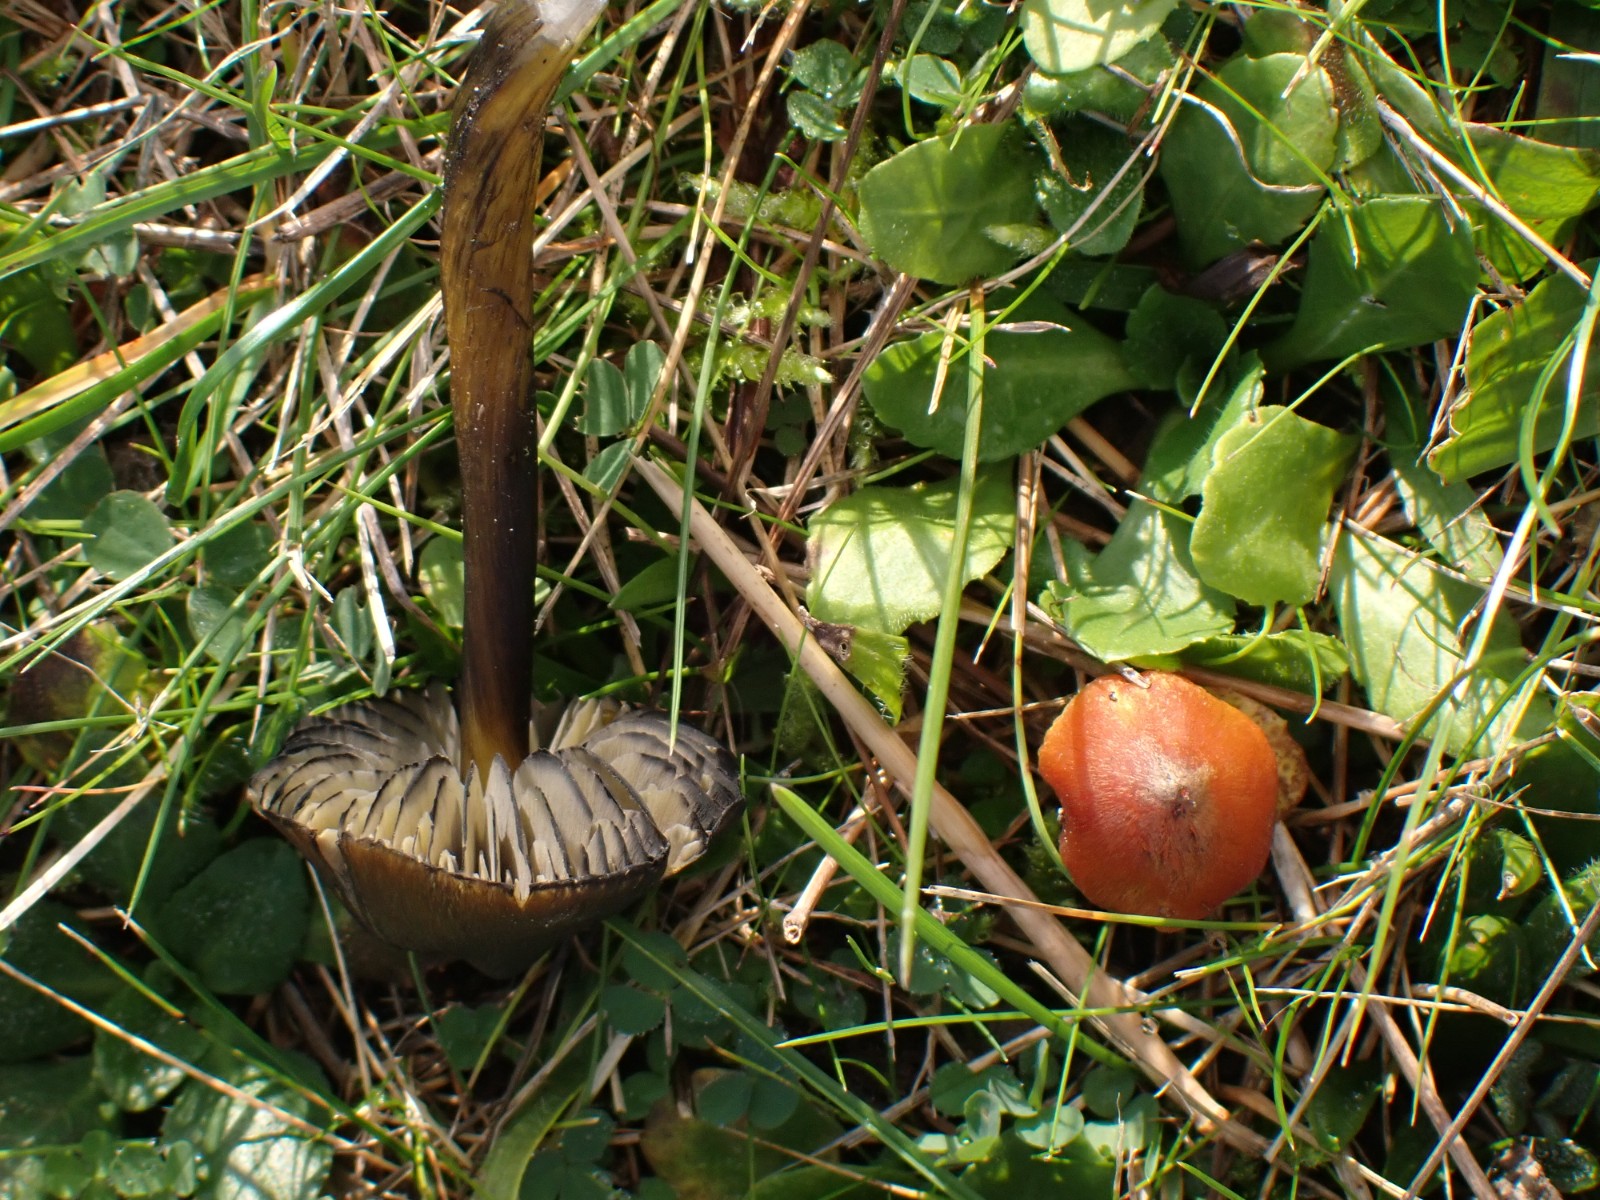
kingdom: Fungi
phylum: Basidiomycota
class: Agaricomycetes
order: Agaricales
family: Hygrophoraceae
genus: Hygrocybe
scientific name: Hygrocybe conica
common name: kegle-vokshat
